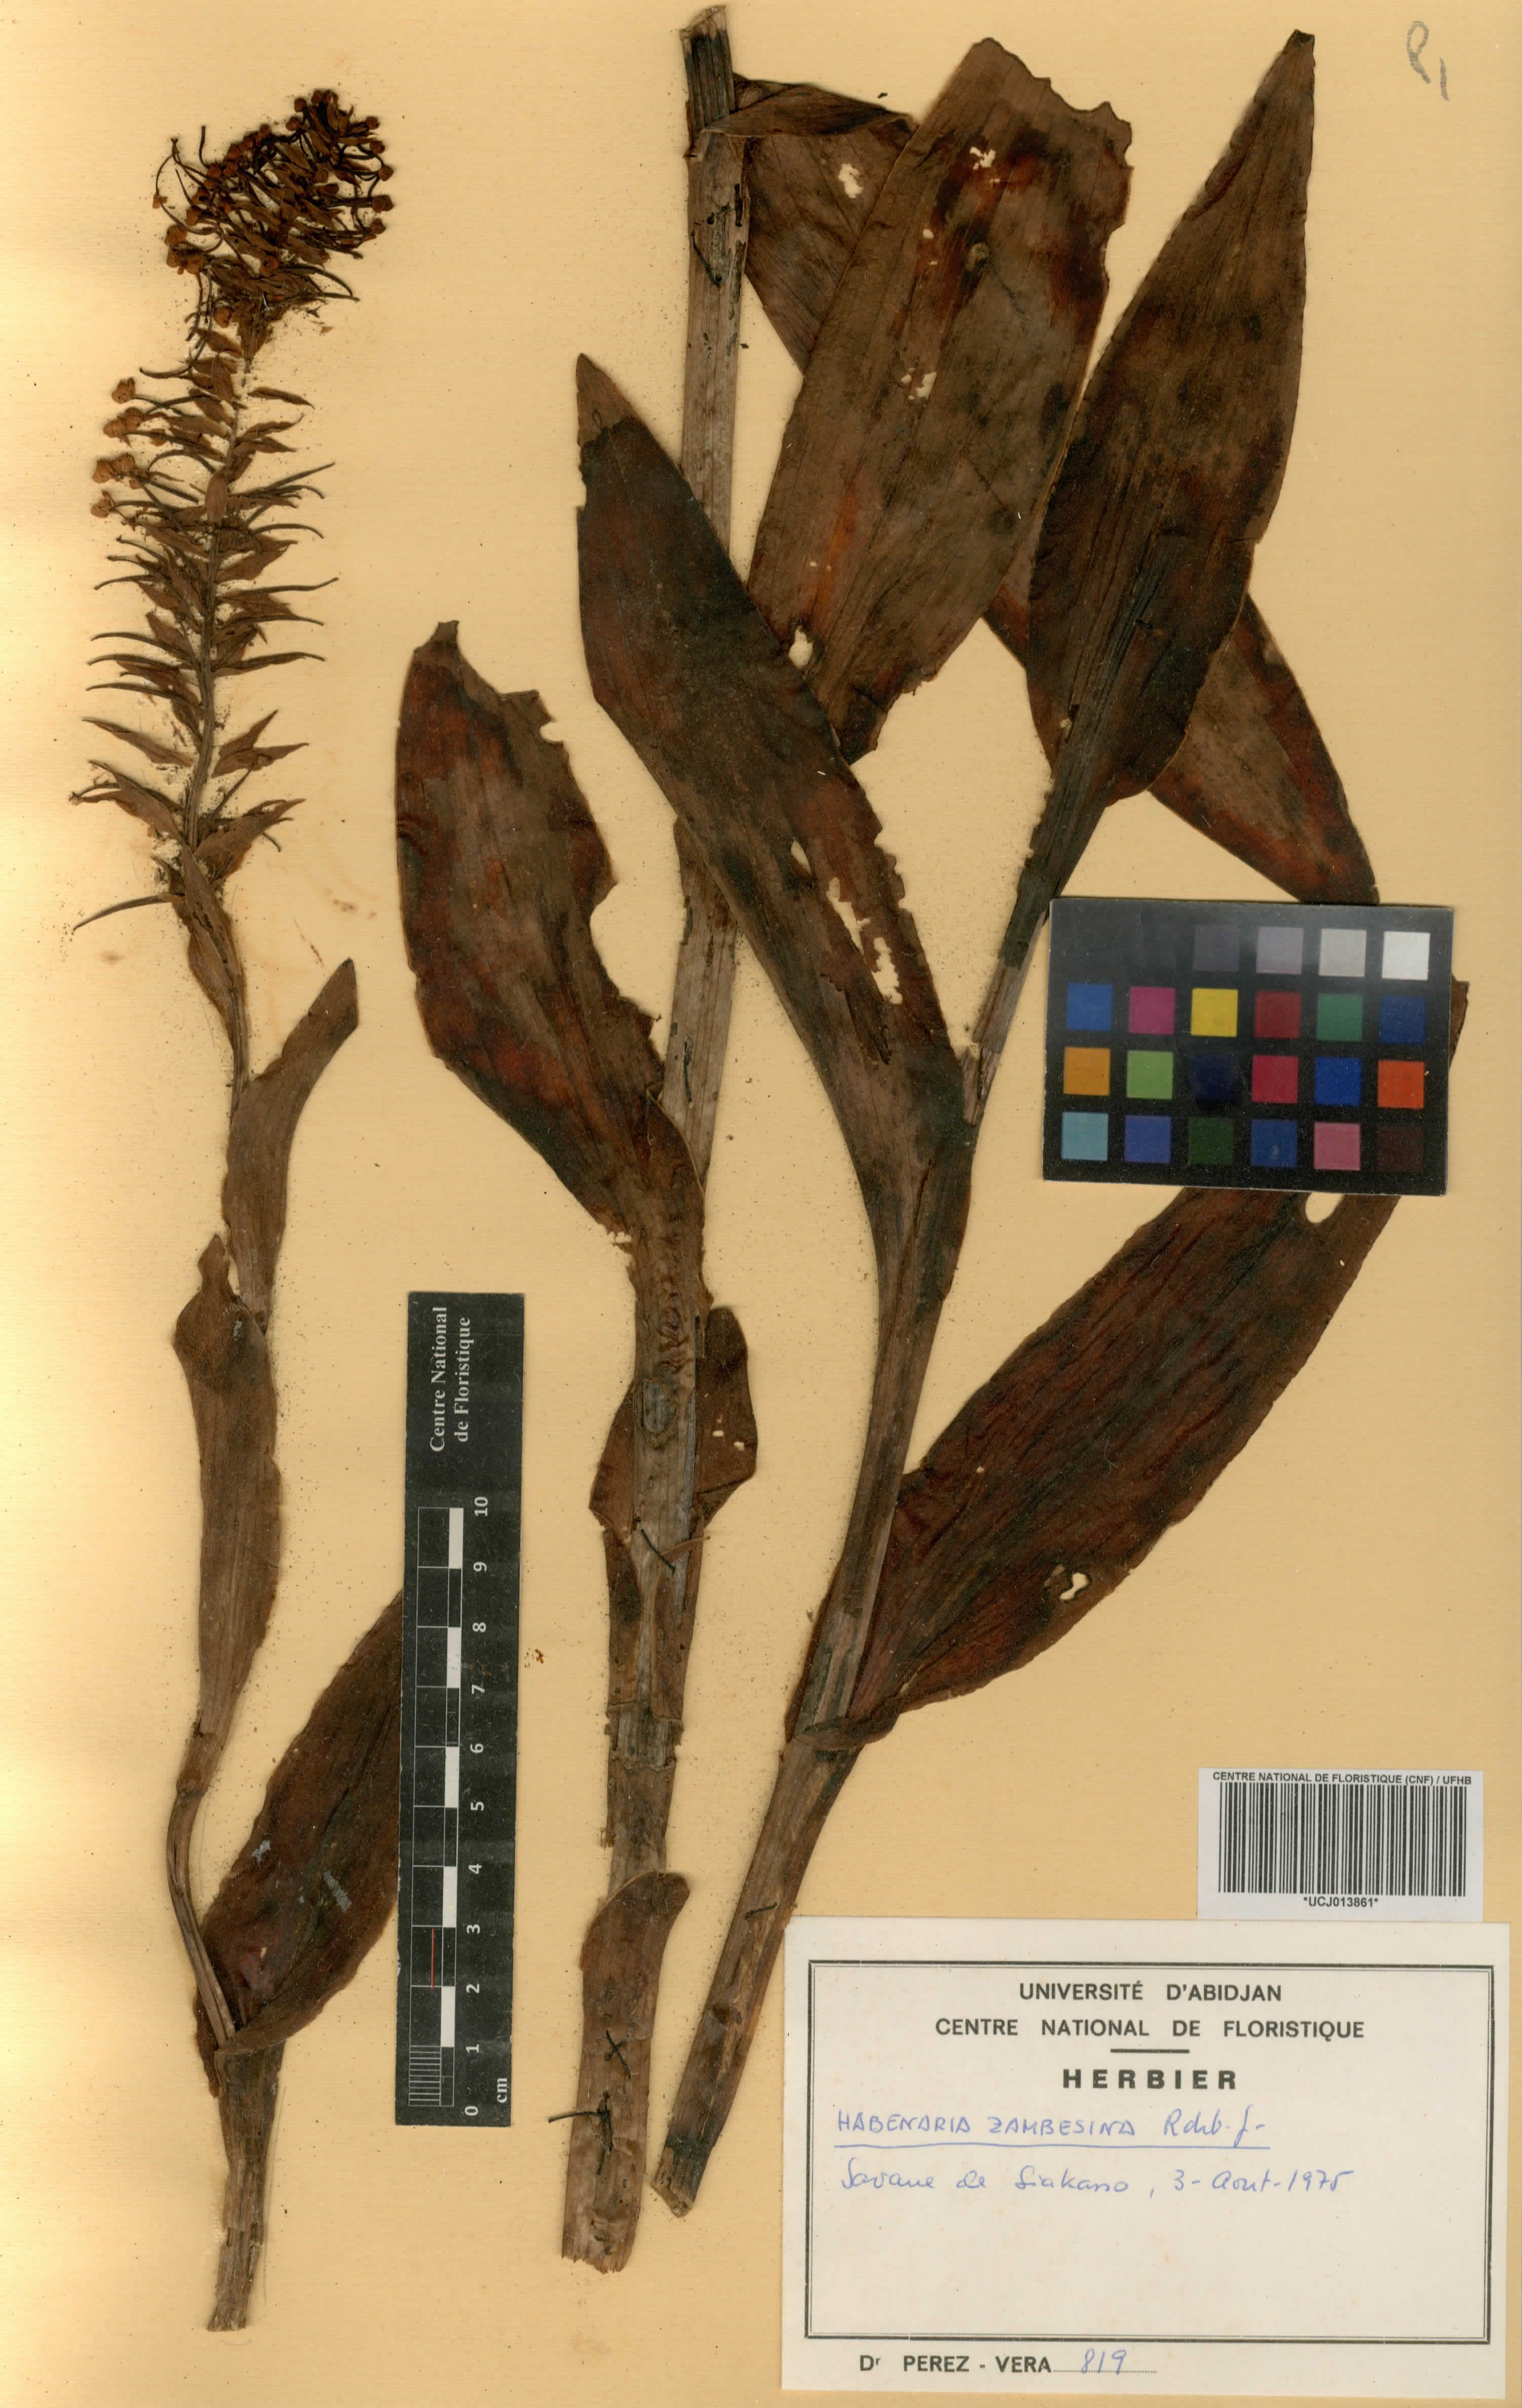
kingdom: Plantae
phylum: Tracheophyta
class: Liliopsida
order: Asparagales
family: Orchidaceae
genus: Habenaria
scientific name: Habenaria zambesina
